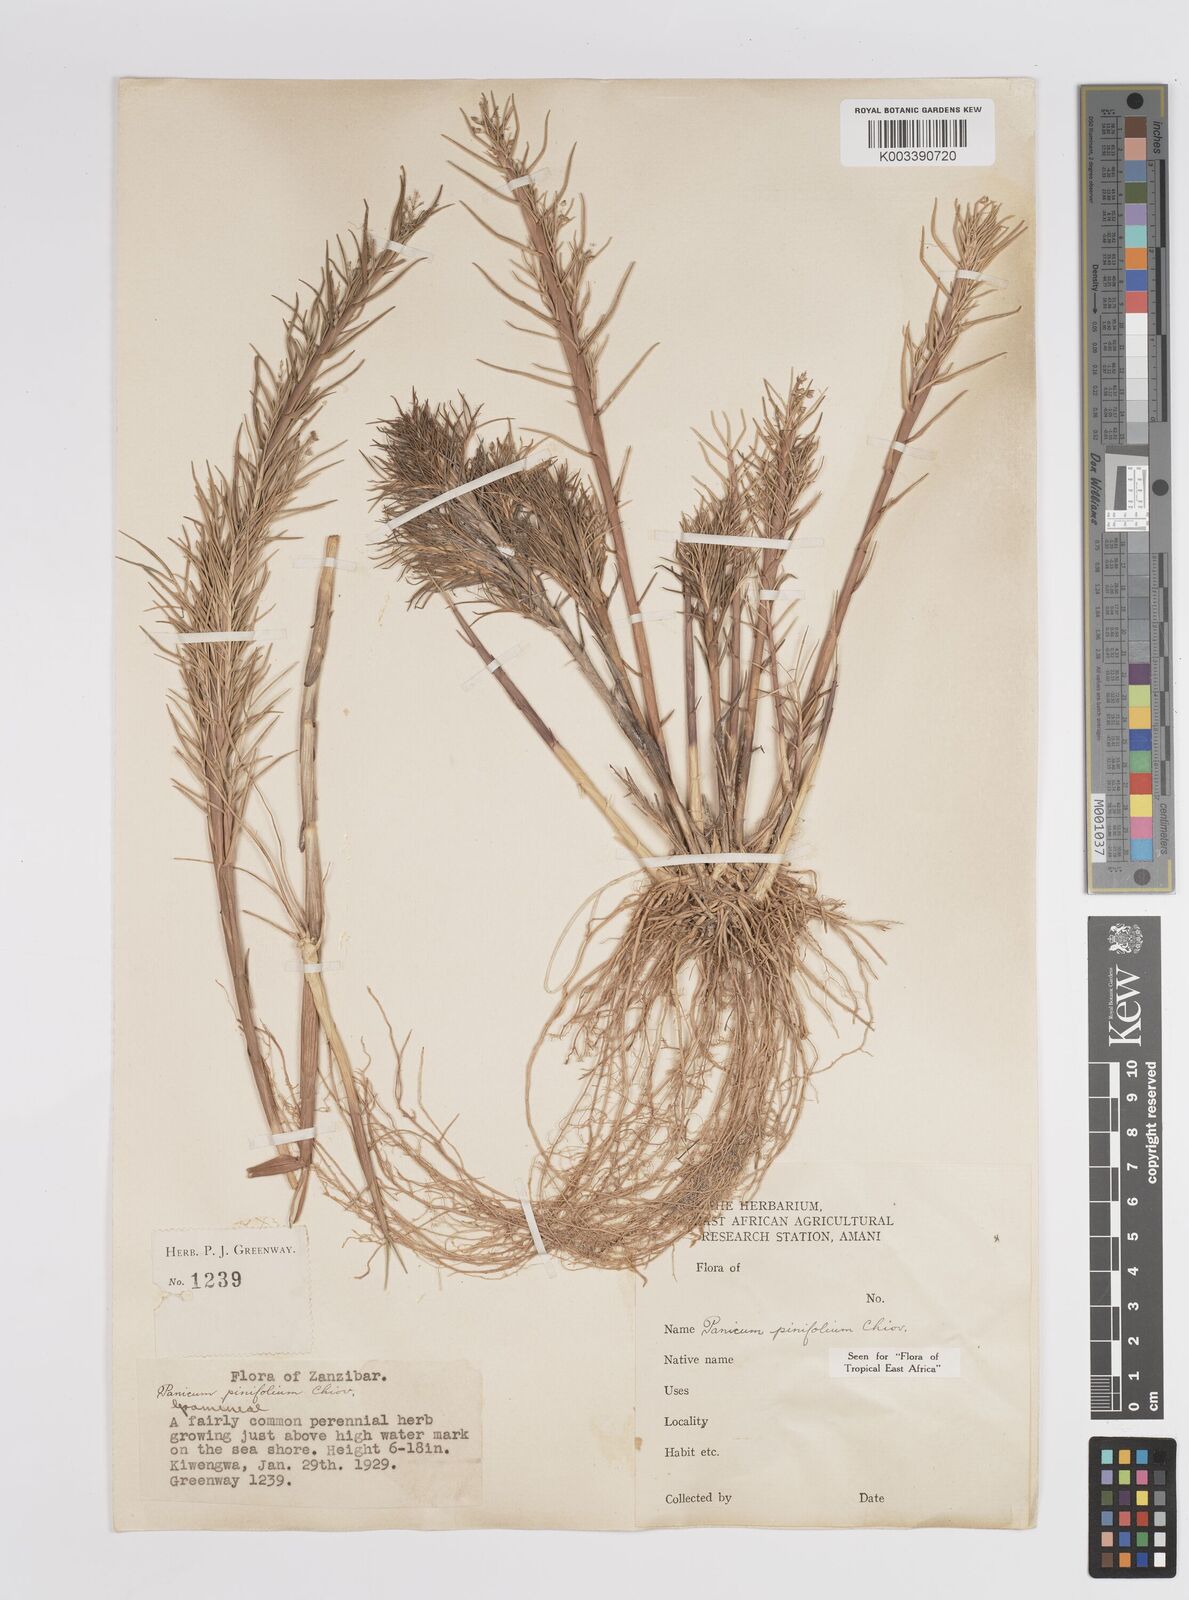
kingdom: Plantae
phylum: Tracheophyta
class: Liliopsida
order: Poales
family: Poaceae
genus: Panicum
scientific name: Panicum pinifolium
